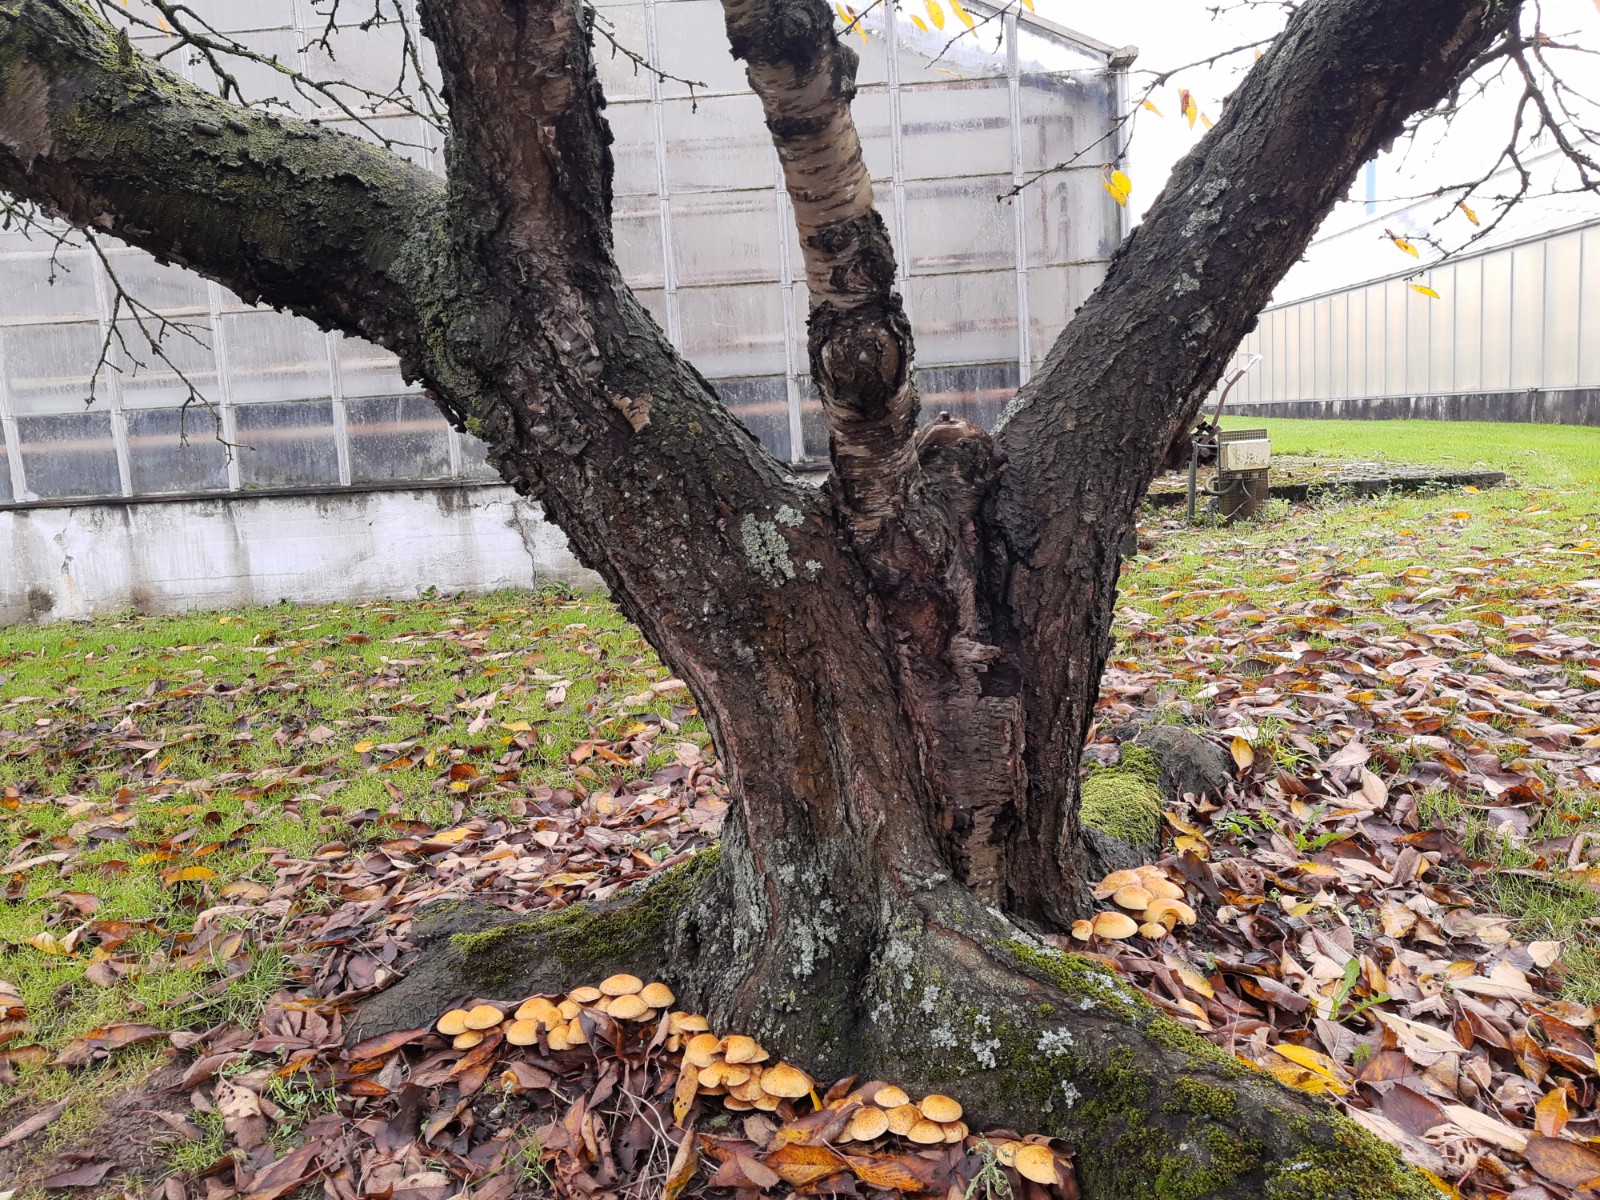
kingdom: Fungi
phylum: Basidiomycota
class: Agaricomycetes
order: Agaricales
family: Strophariaceae
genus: Pholiota
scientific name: Pholiota squarrosa
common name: krumskællet skælhat
